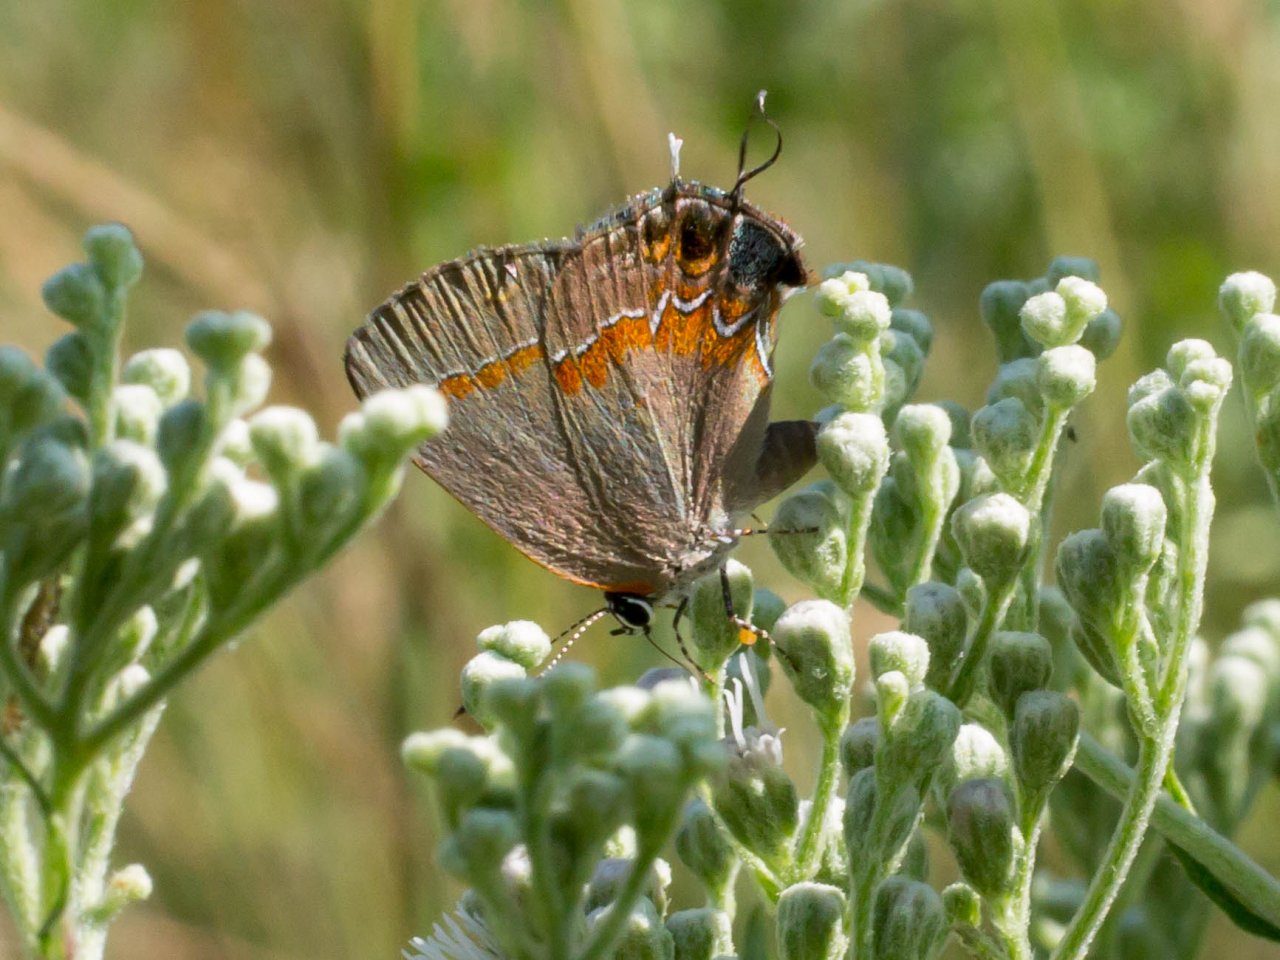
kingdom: Animalia
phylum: Arthropoda
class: Insecta
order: Lepidoptera
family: Lycaenidae
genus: Calycopis
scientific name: Calycopis cecrops
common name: Red-banded Hairstreak
